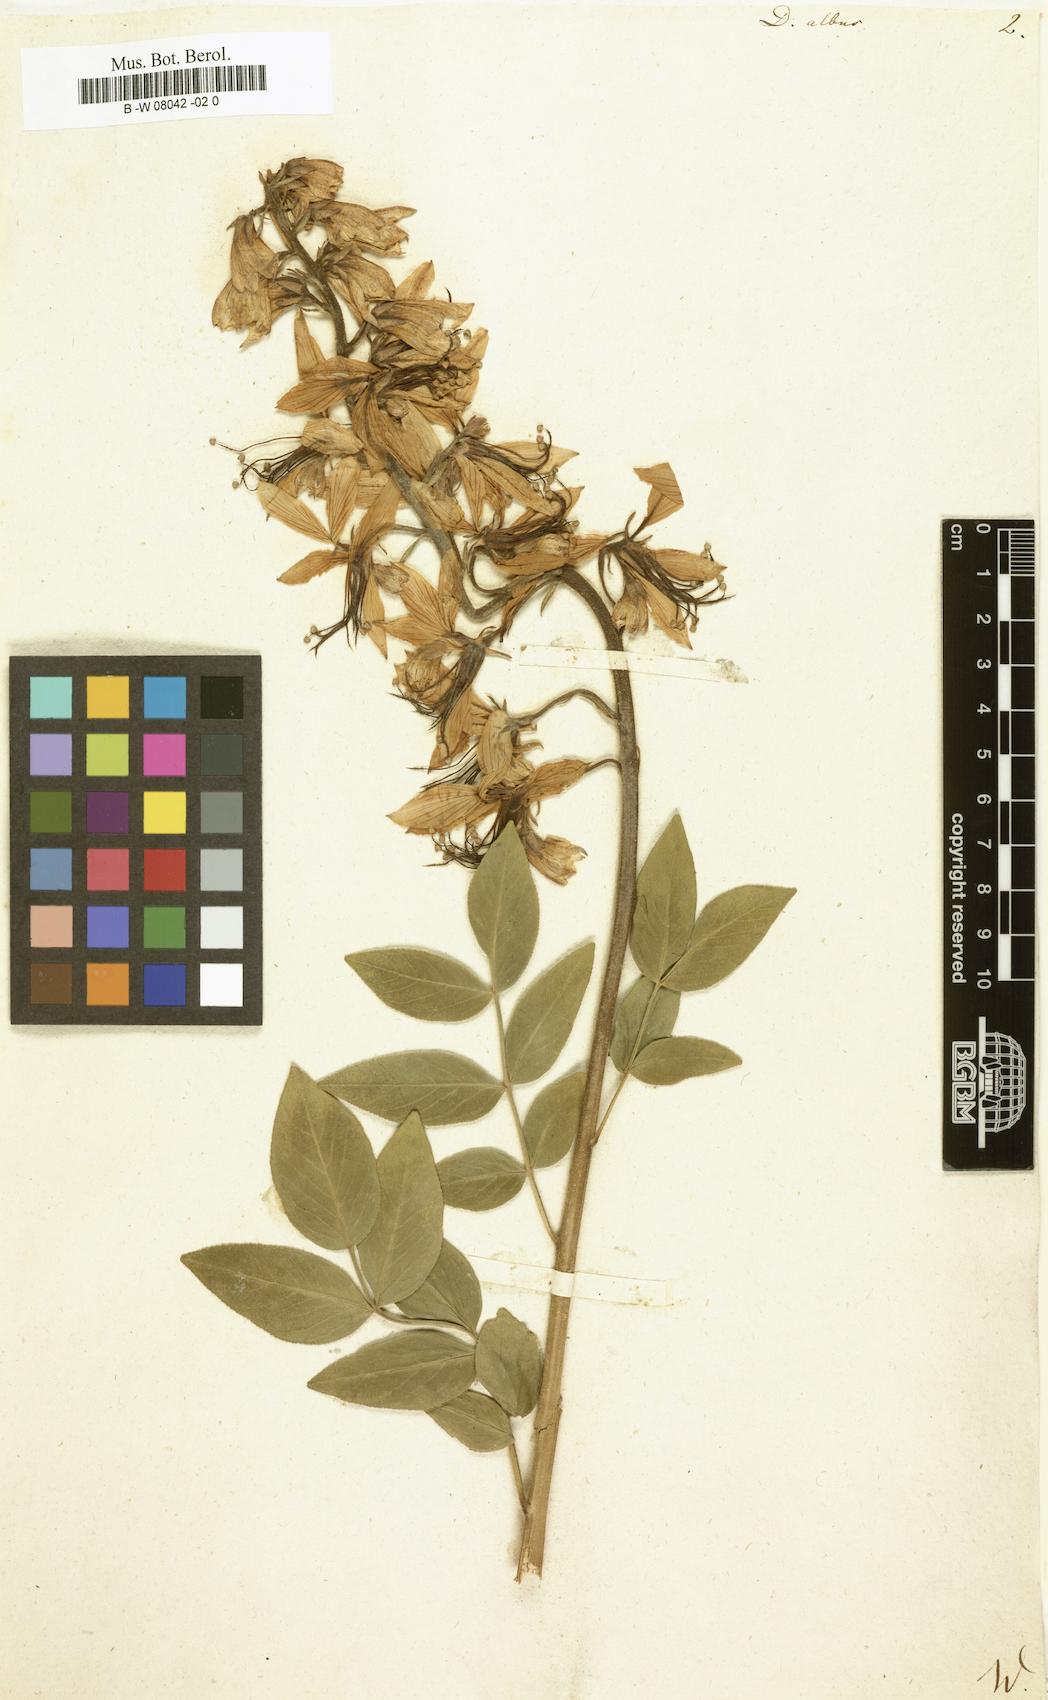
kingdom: Plantae
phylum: Tracheophyta
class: Magnoliopsida
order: Sapindales
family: Rutaceae
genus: Dictamnus
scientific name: Dictamnus albus
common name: Gasplant
